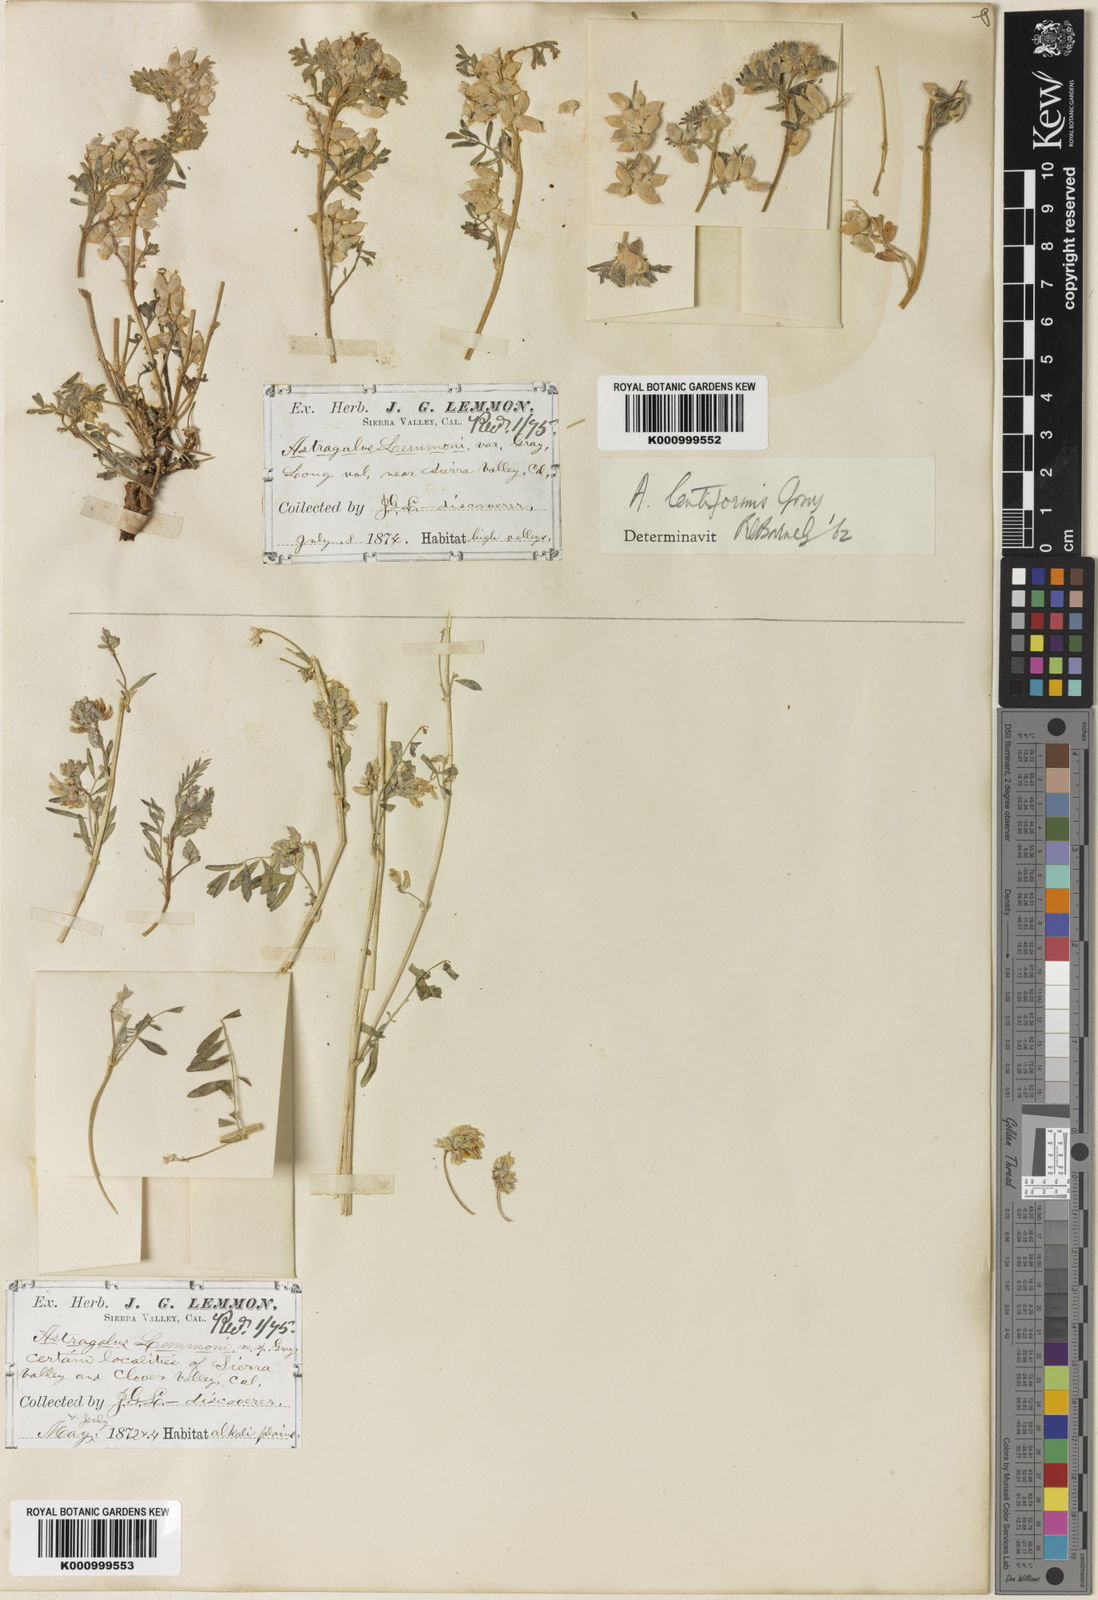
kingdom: Plantae
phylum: Tracheophyta
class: Magnoliopsida
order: Fabales
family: Fabaceae
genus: Astragalus
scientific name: Astragalus lemmonii
